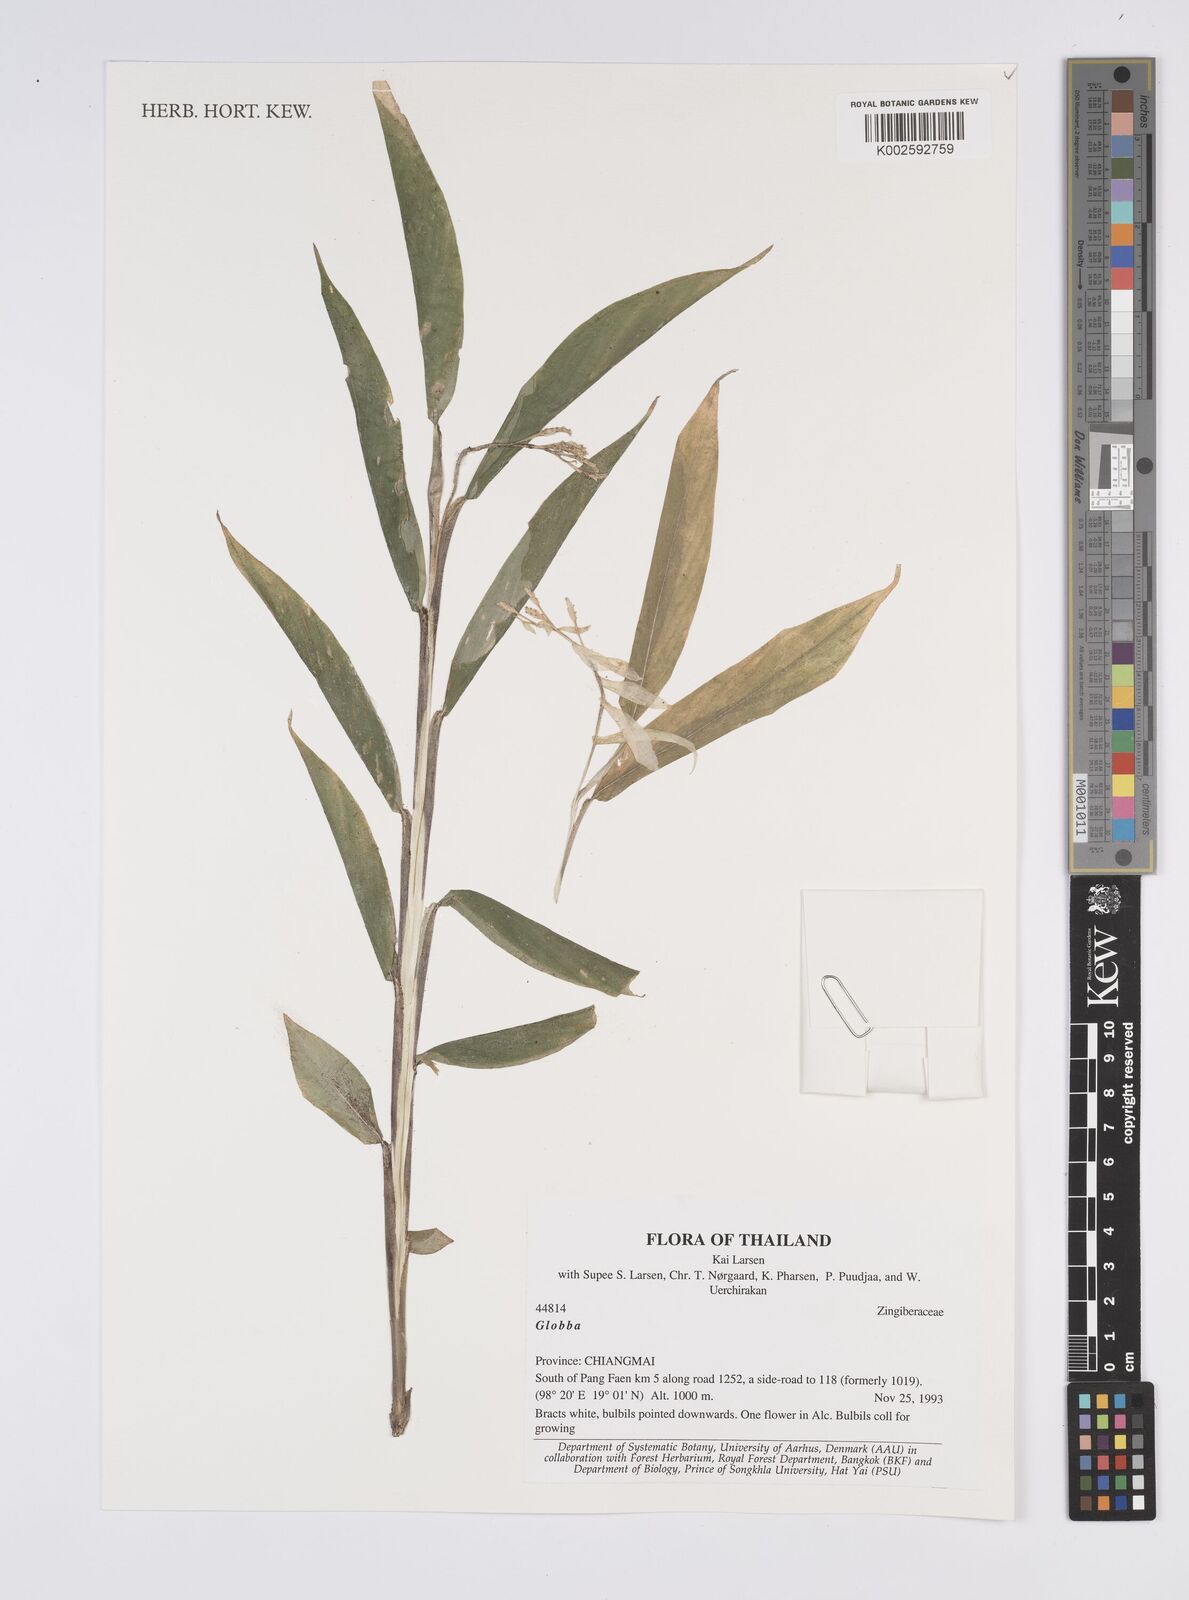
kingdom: Plantae
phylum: Tracheophyta
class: Liliopsida
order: Zingiberales
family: Zingiberaceae
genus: Globba
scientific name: Globba
